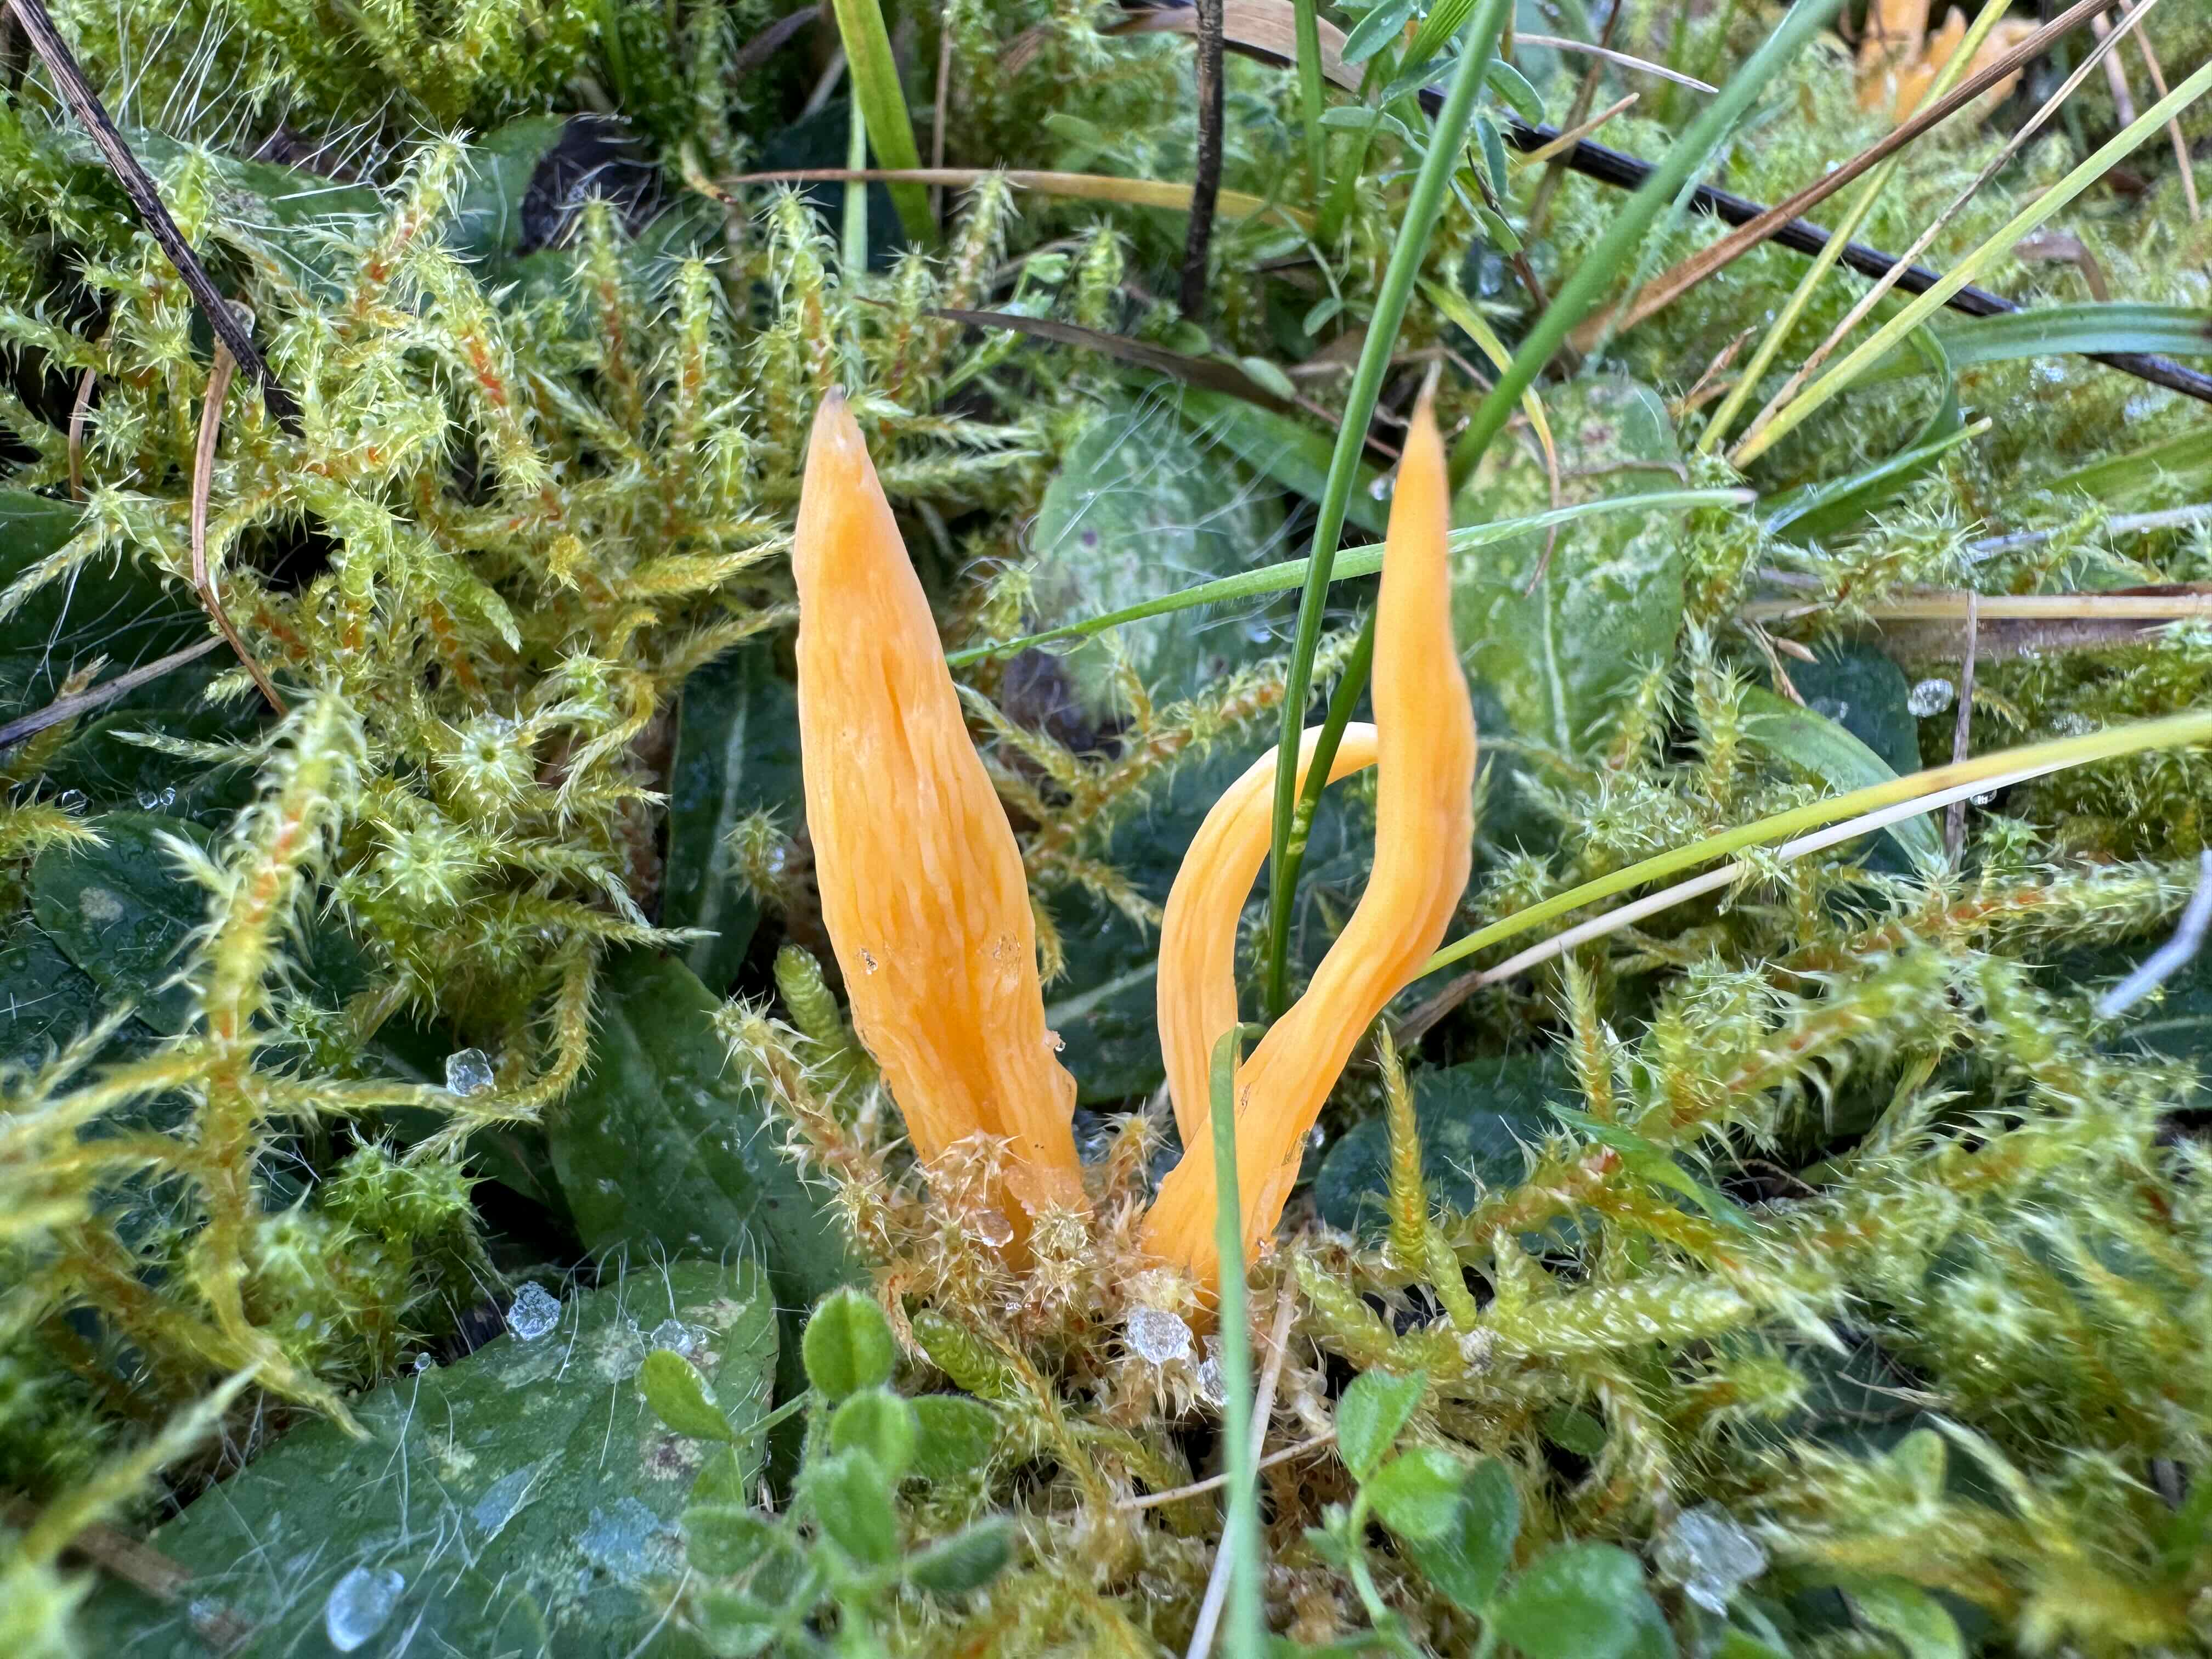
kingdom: Fungi
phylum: Basidiomycota
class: Agaricomycetes
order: Agaricales
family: Clavariaceae
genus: Clavulinopsis
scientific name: Clavulinopsis luteoalba
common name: abrikos-køllesvamp
